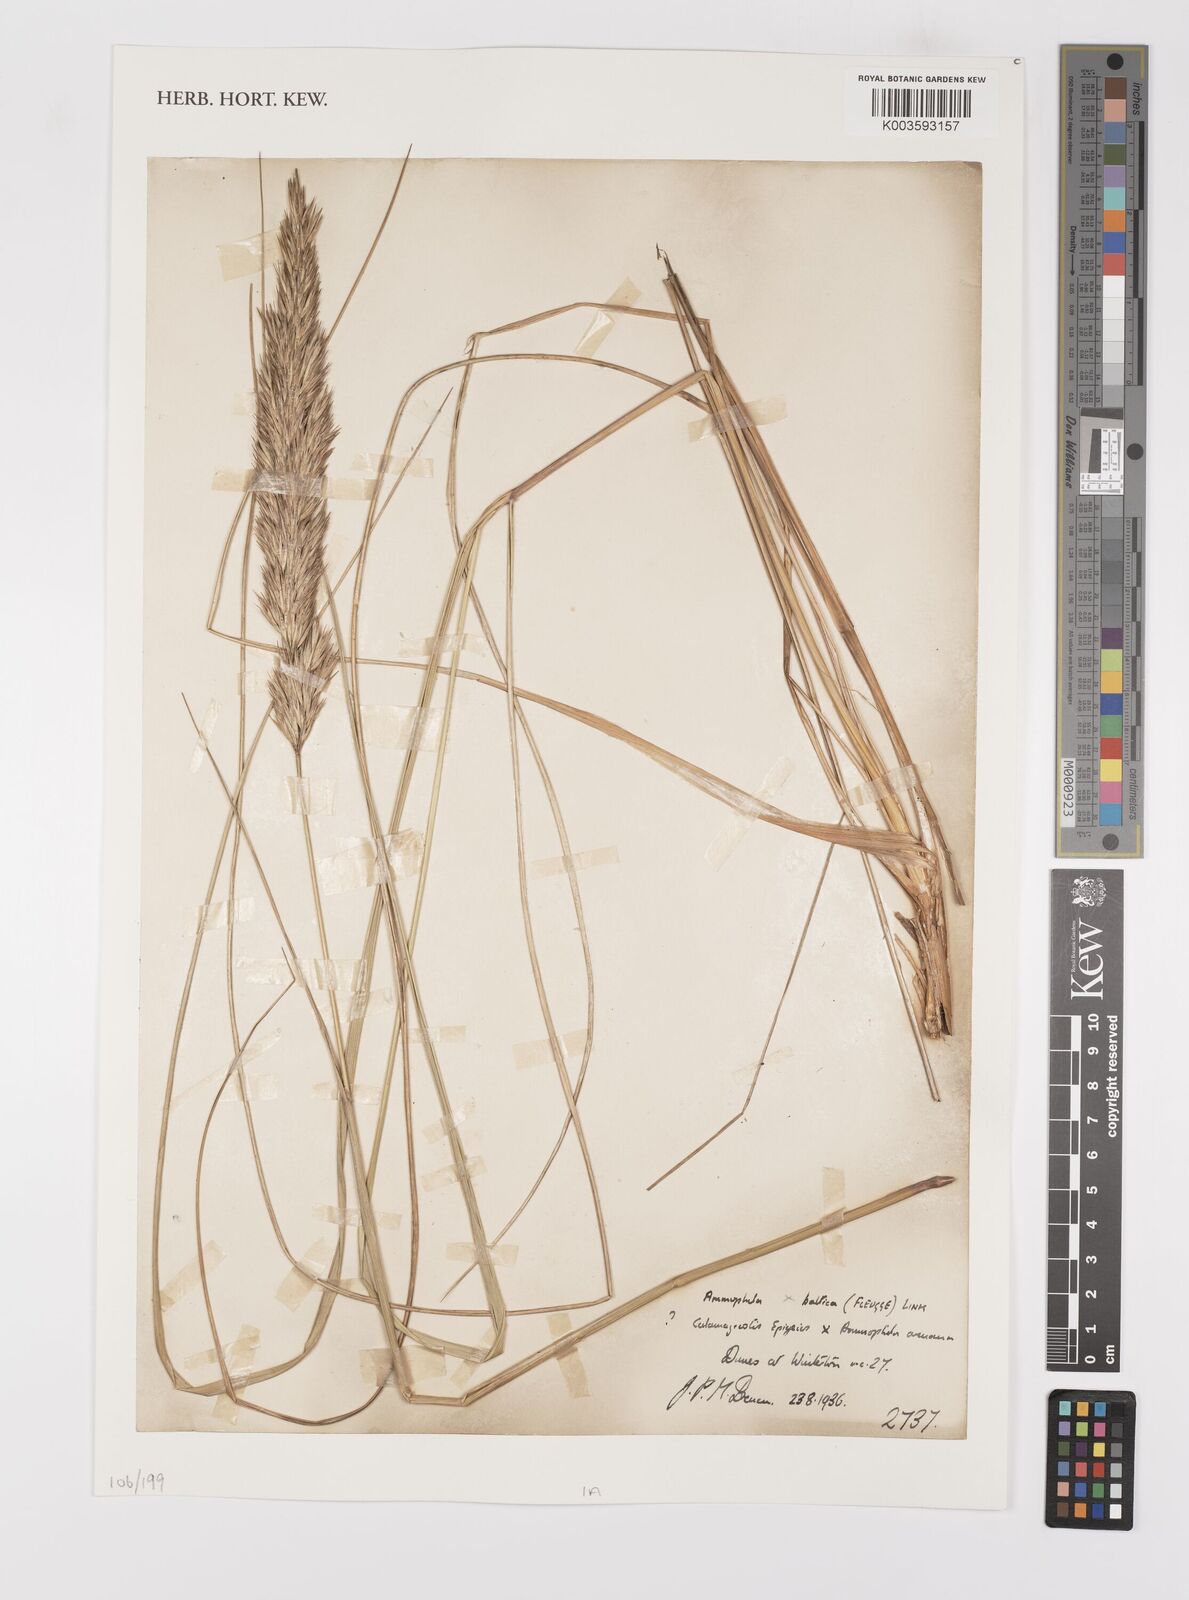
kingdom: Plantae
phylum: Tracheophyta
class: Liliopsida
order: Poales
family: Poaceae
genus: Calamagrostis
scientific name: Calamagrostis baltica
